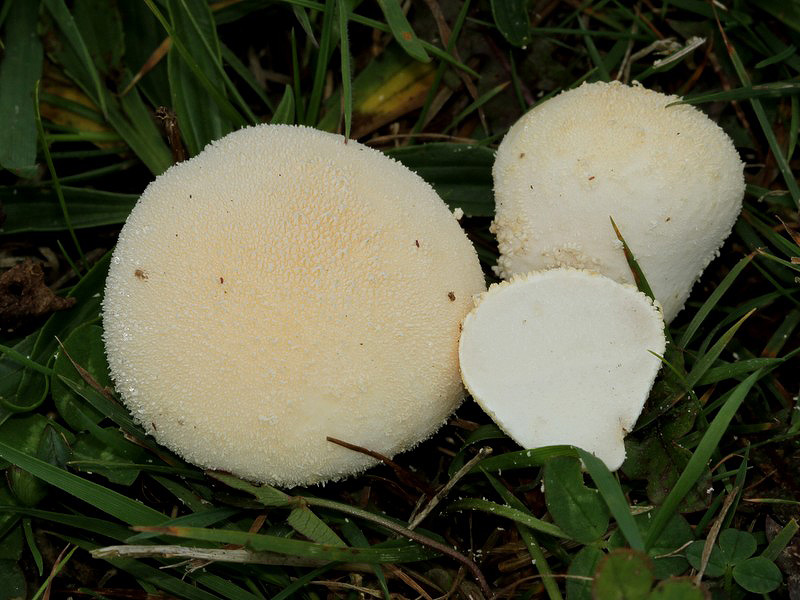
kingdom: Fungi
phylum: Basidiomycota
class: Agaricomycetes
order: Agaricales
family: Lycoperdaceae
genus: Lycoperdon
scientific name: Lycoperdon pratense
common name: flad støvbold
